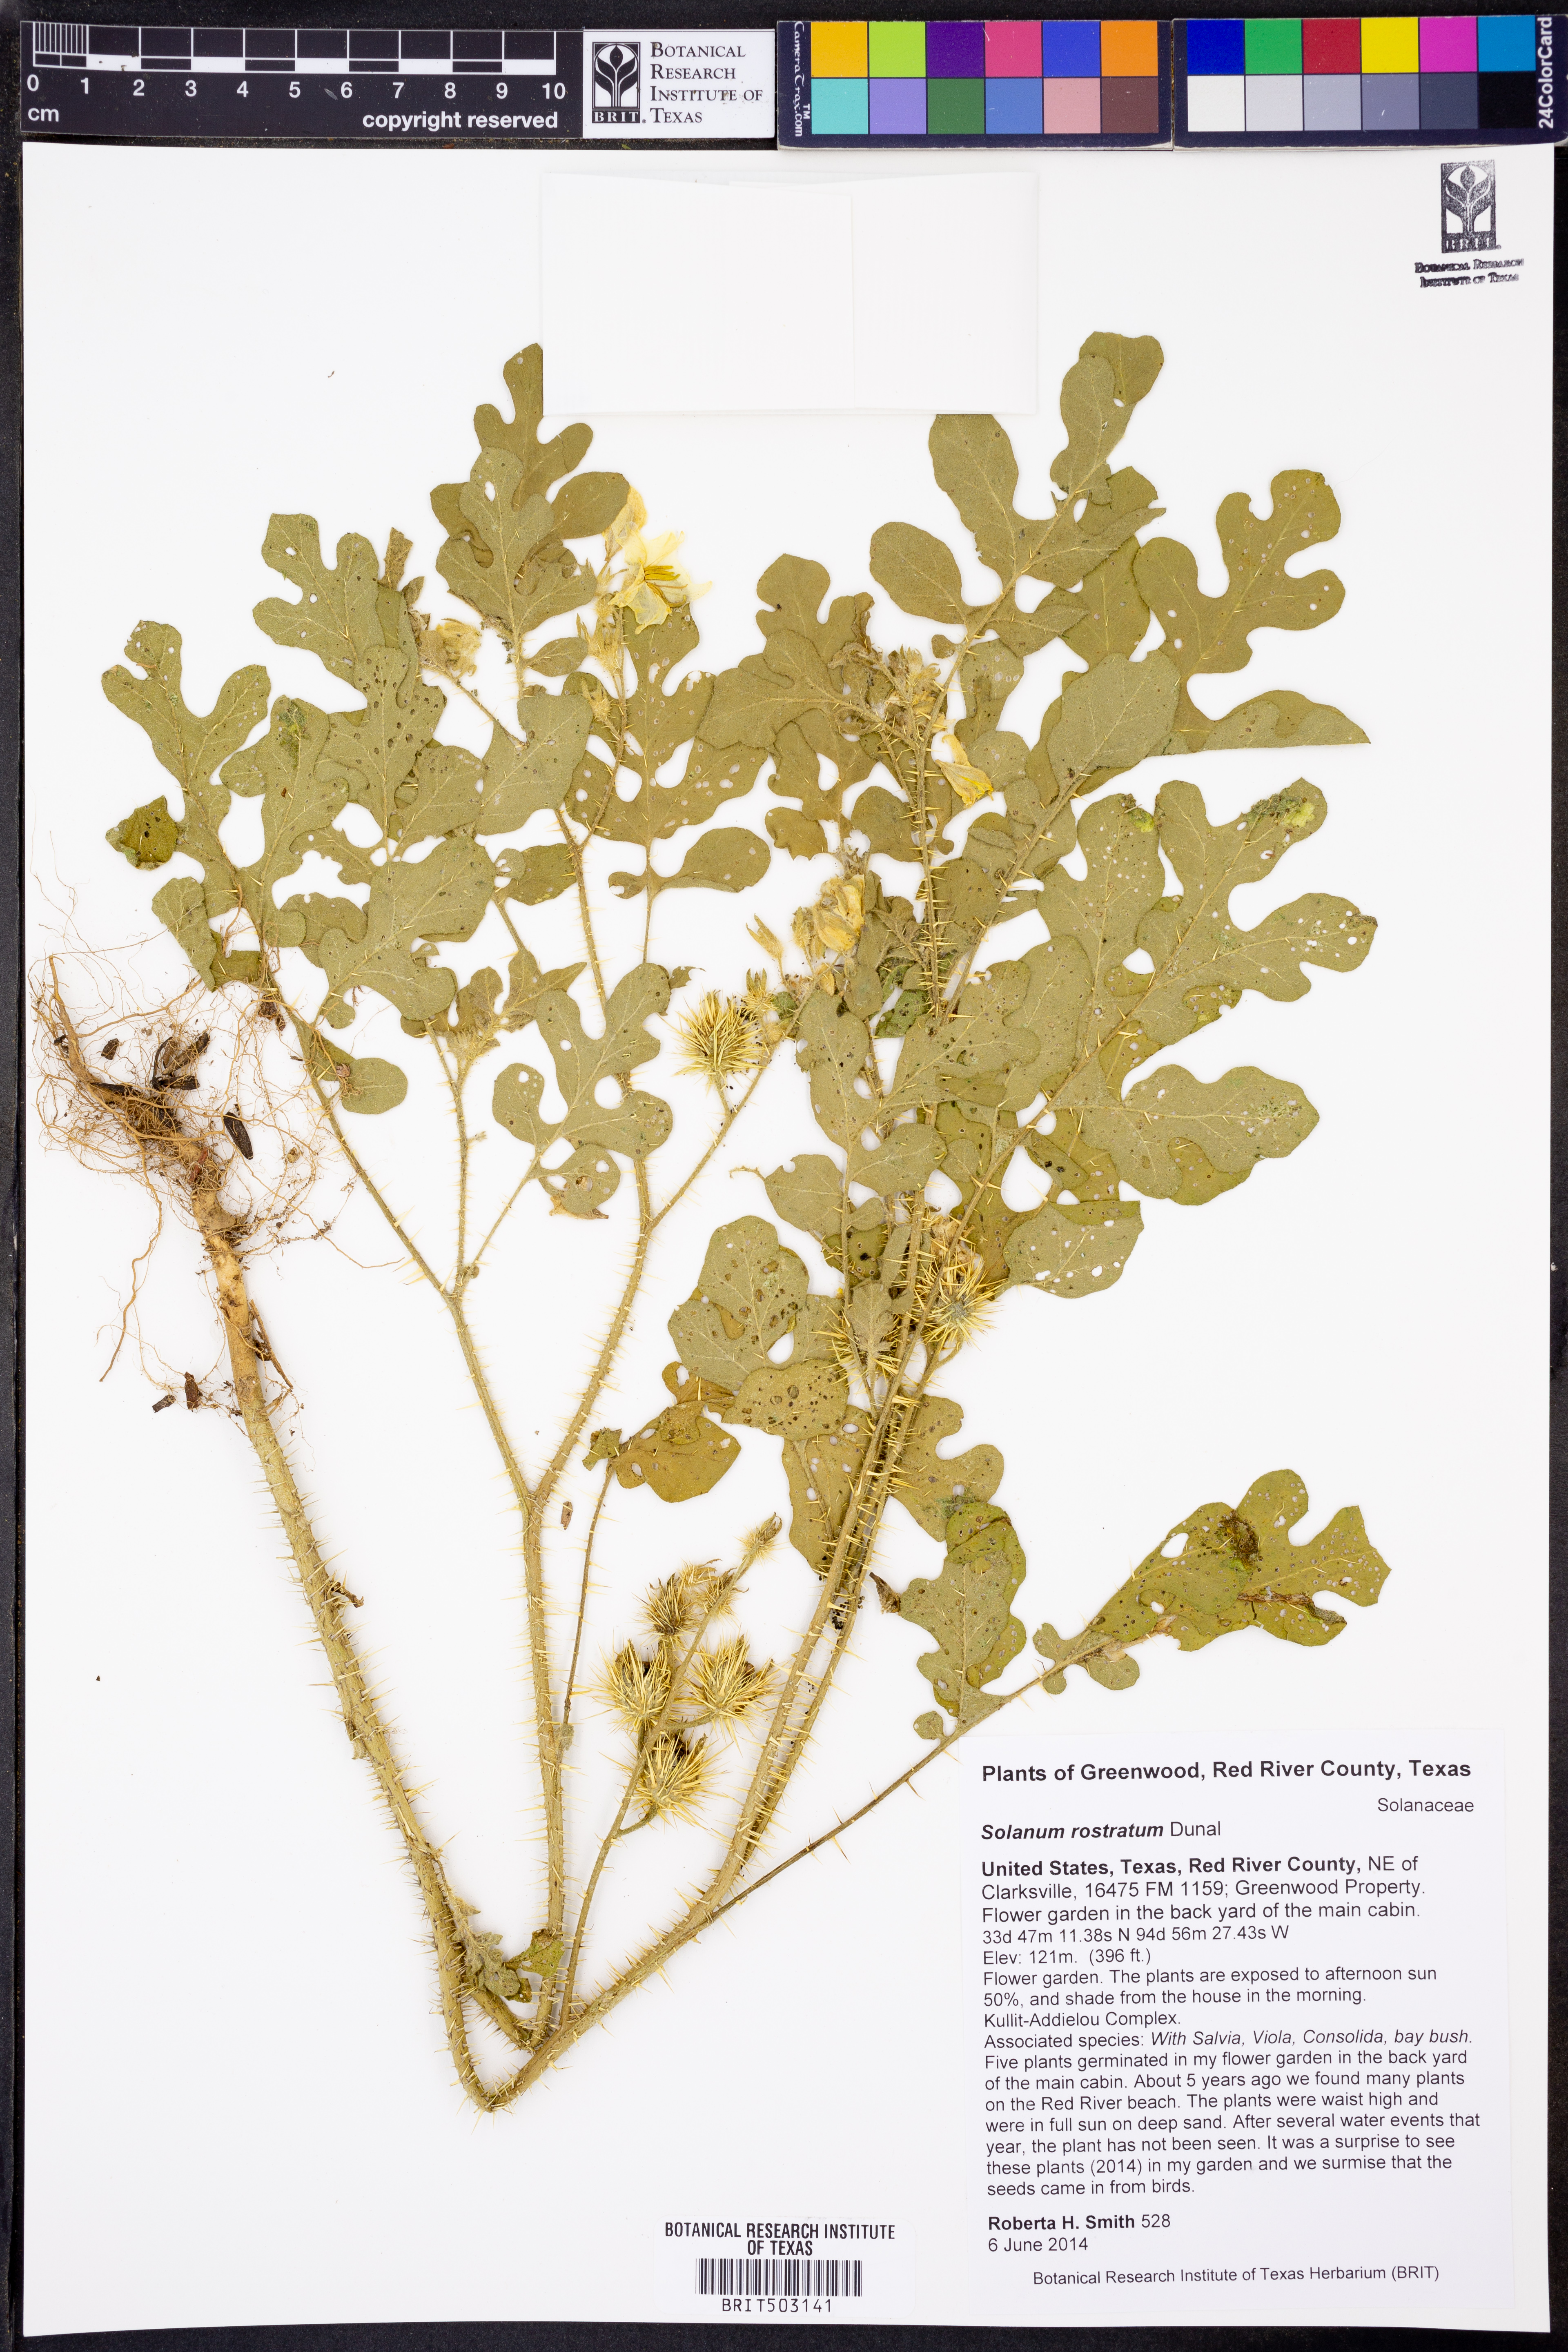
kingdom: Plantae
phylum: Tracheophyta
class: Magnoliopsida
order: Solanales
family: Solanaceae
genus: Solanum
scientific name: Solanum angustifolium
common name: Buffalobur nightshade
